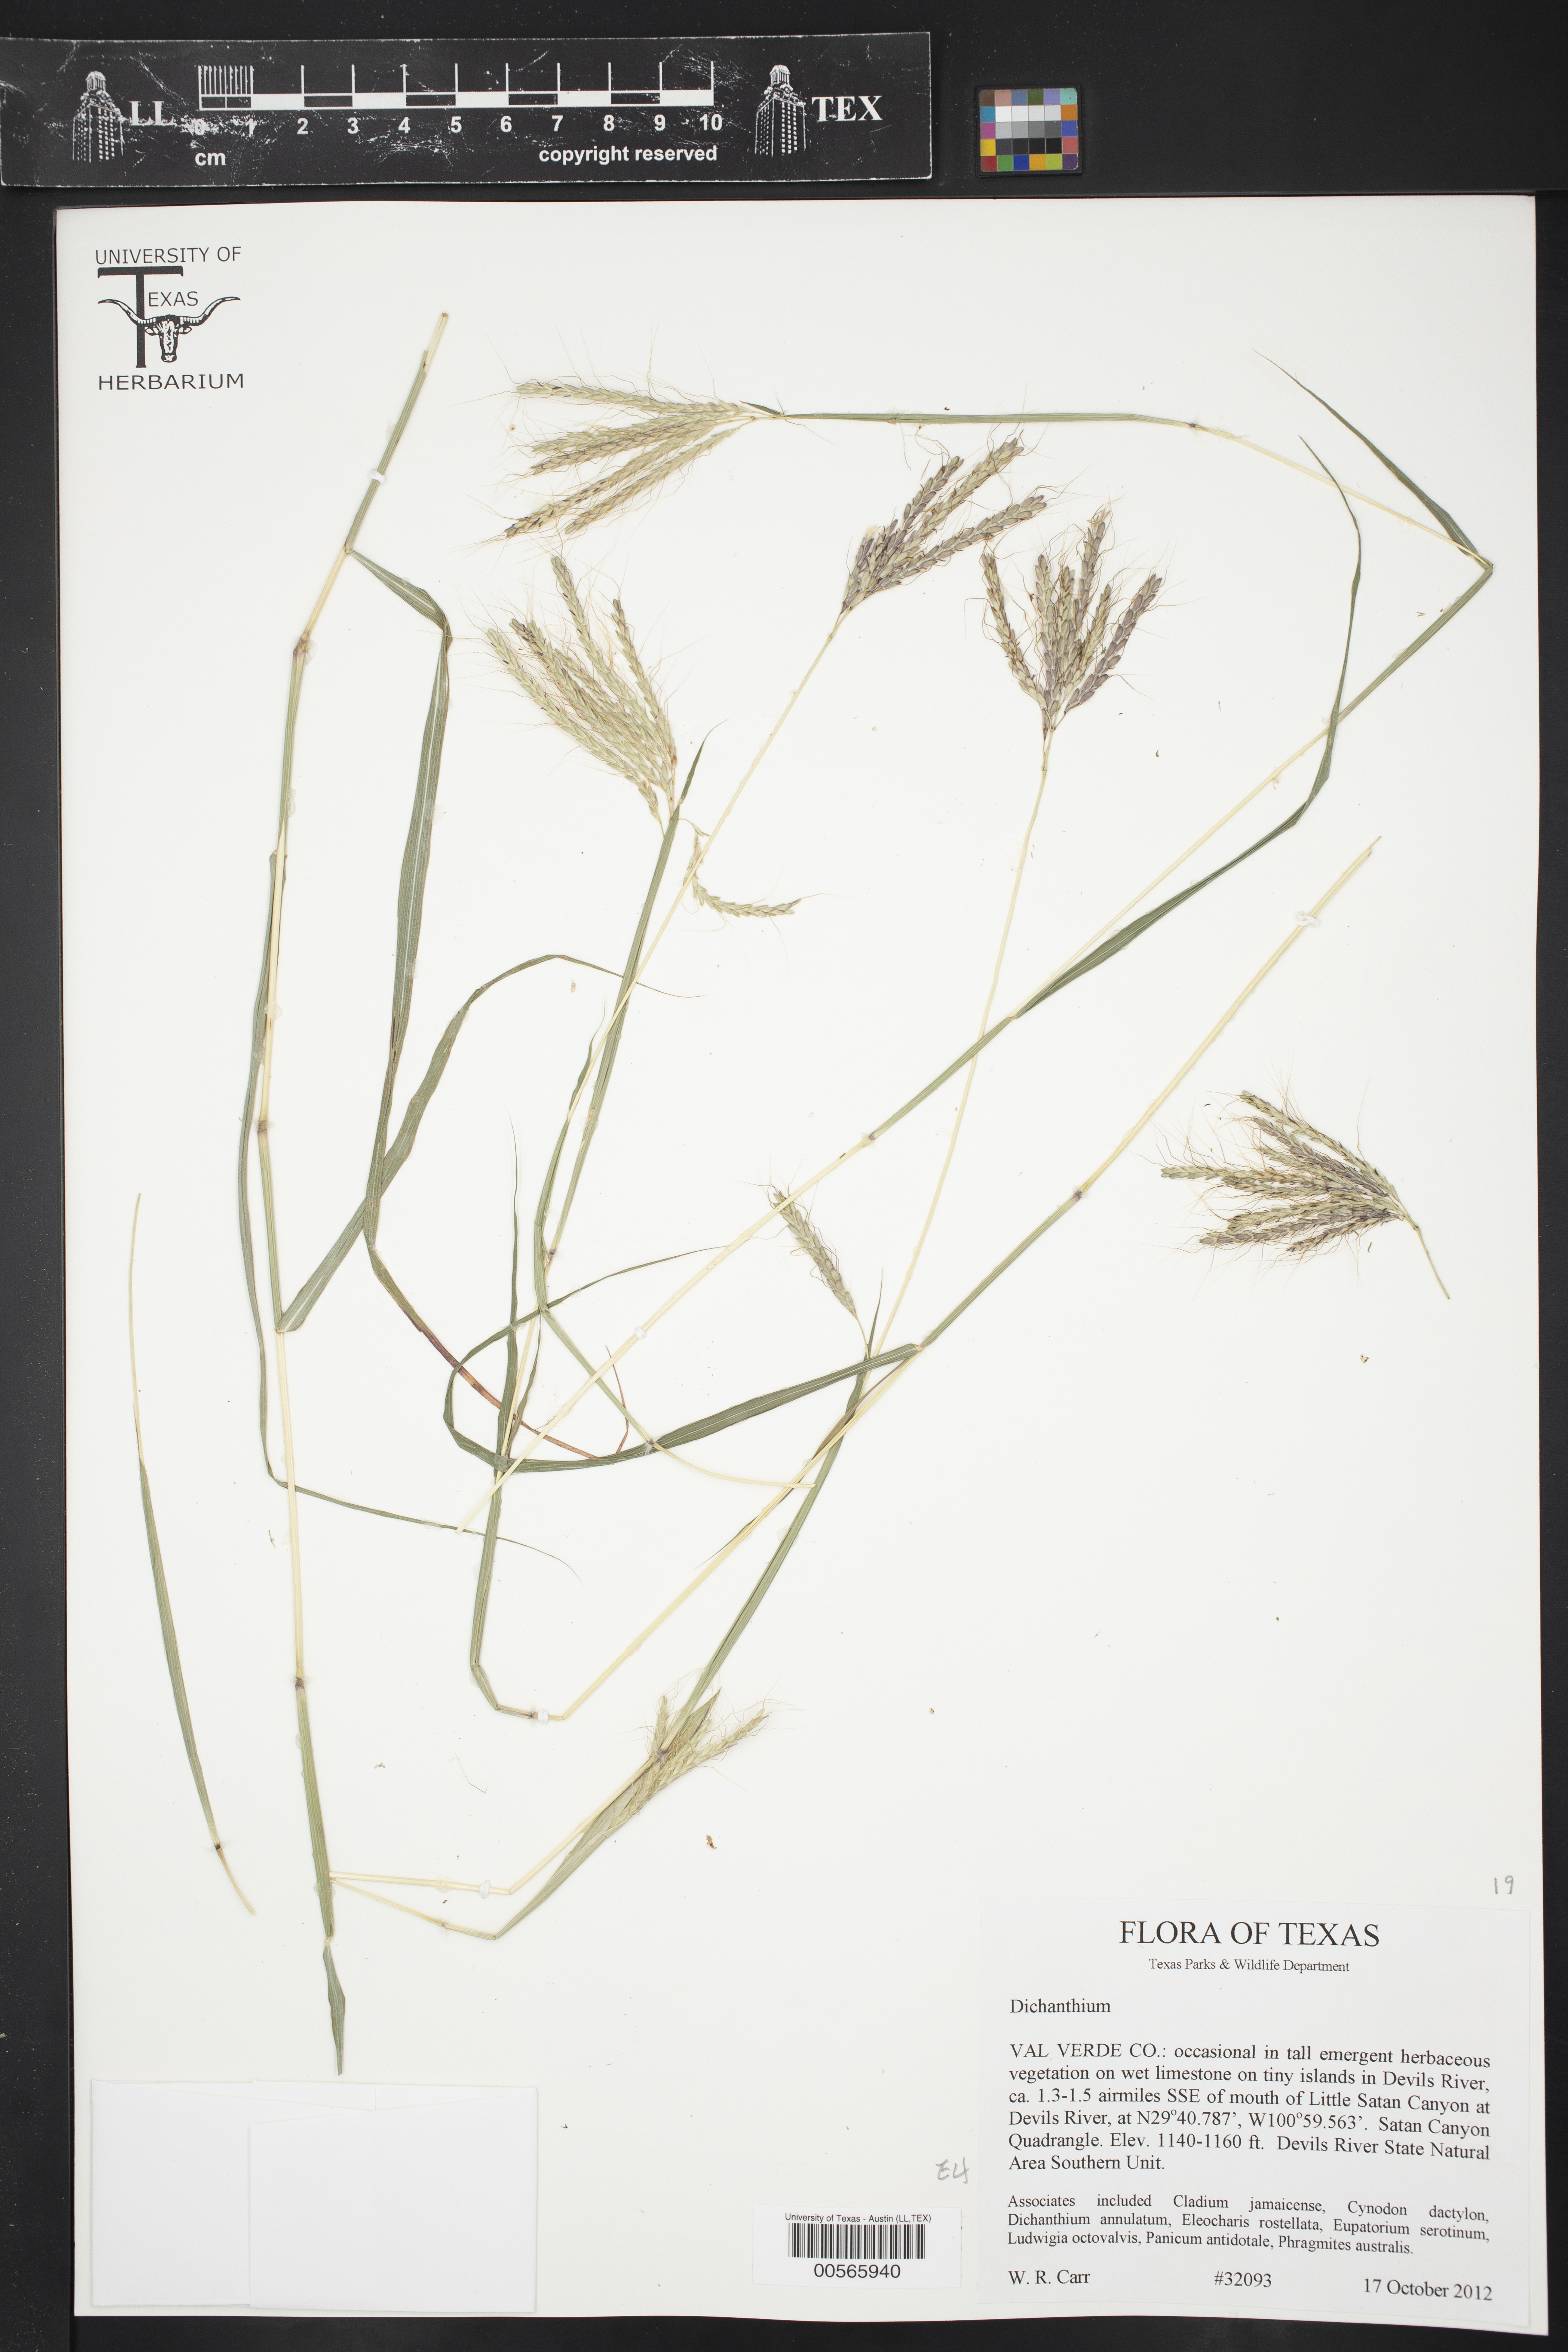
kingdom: Plantae
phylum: Tracheophyta
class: Liliopsida
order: Poales
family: Poaceae
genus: Dichanthium
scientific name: Dichanthium
